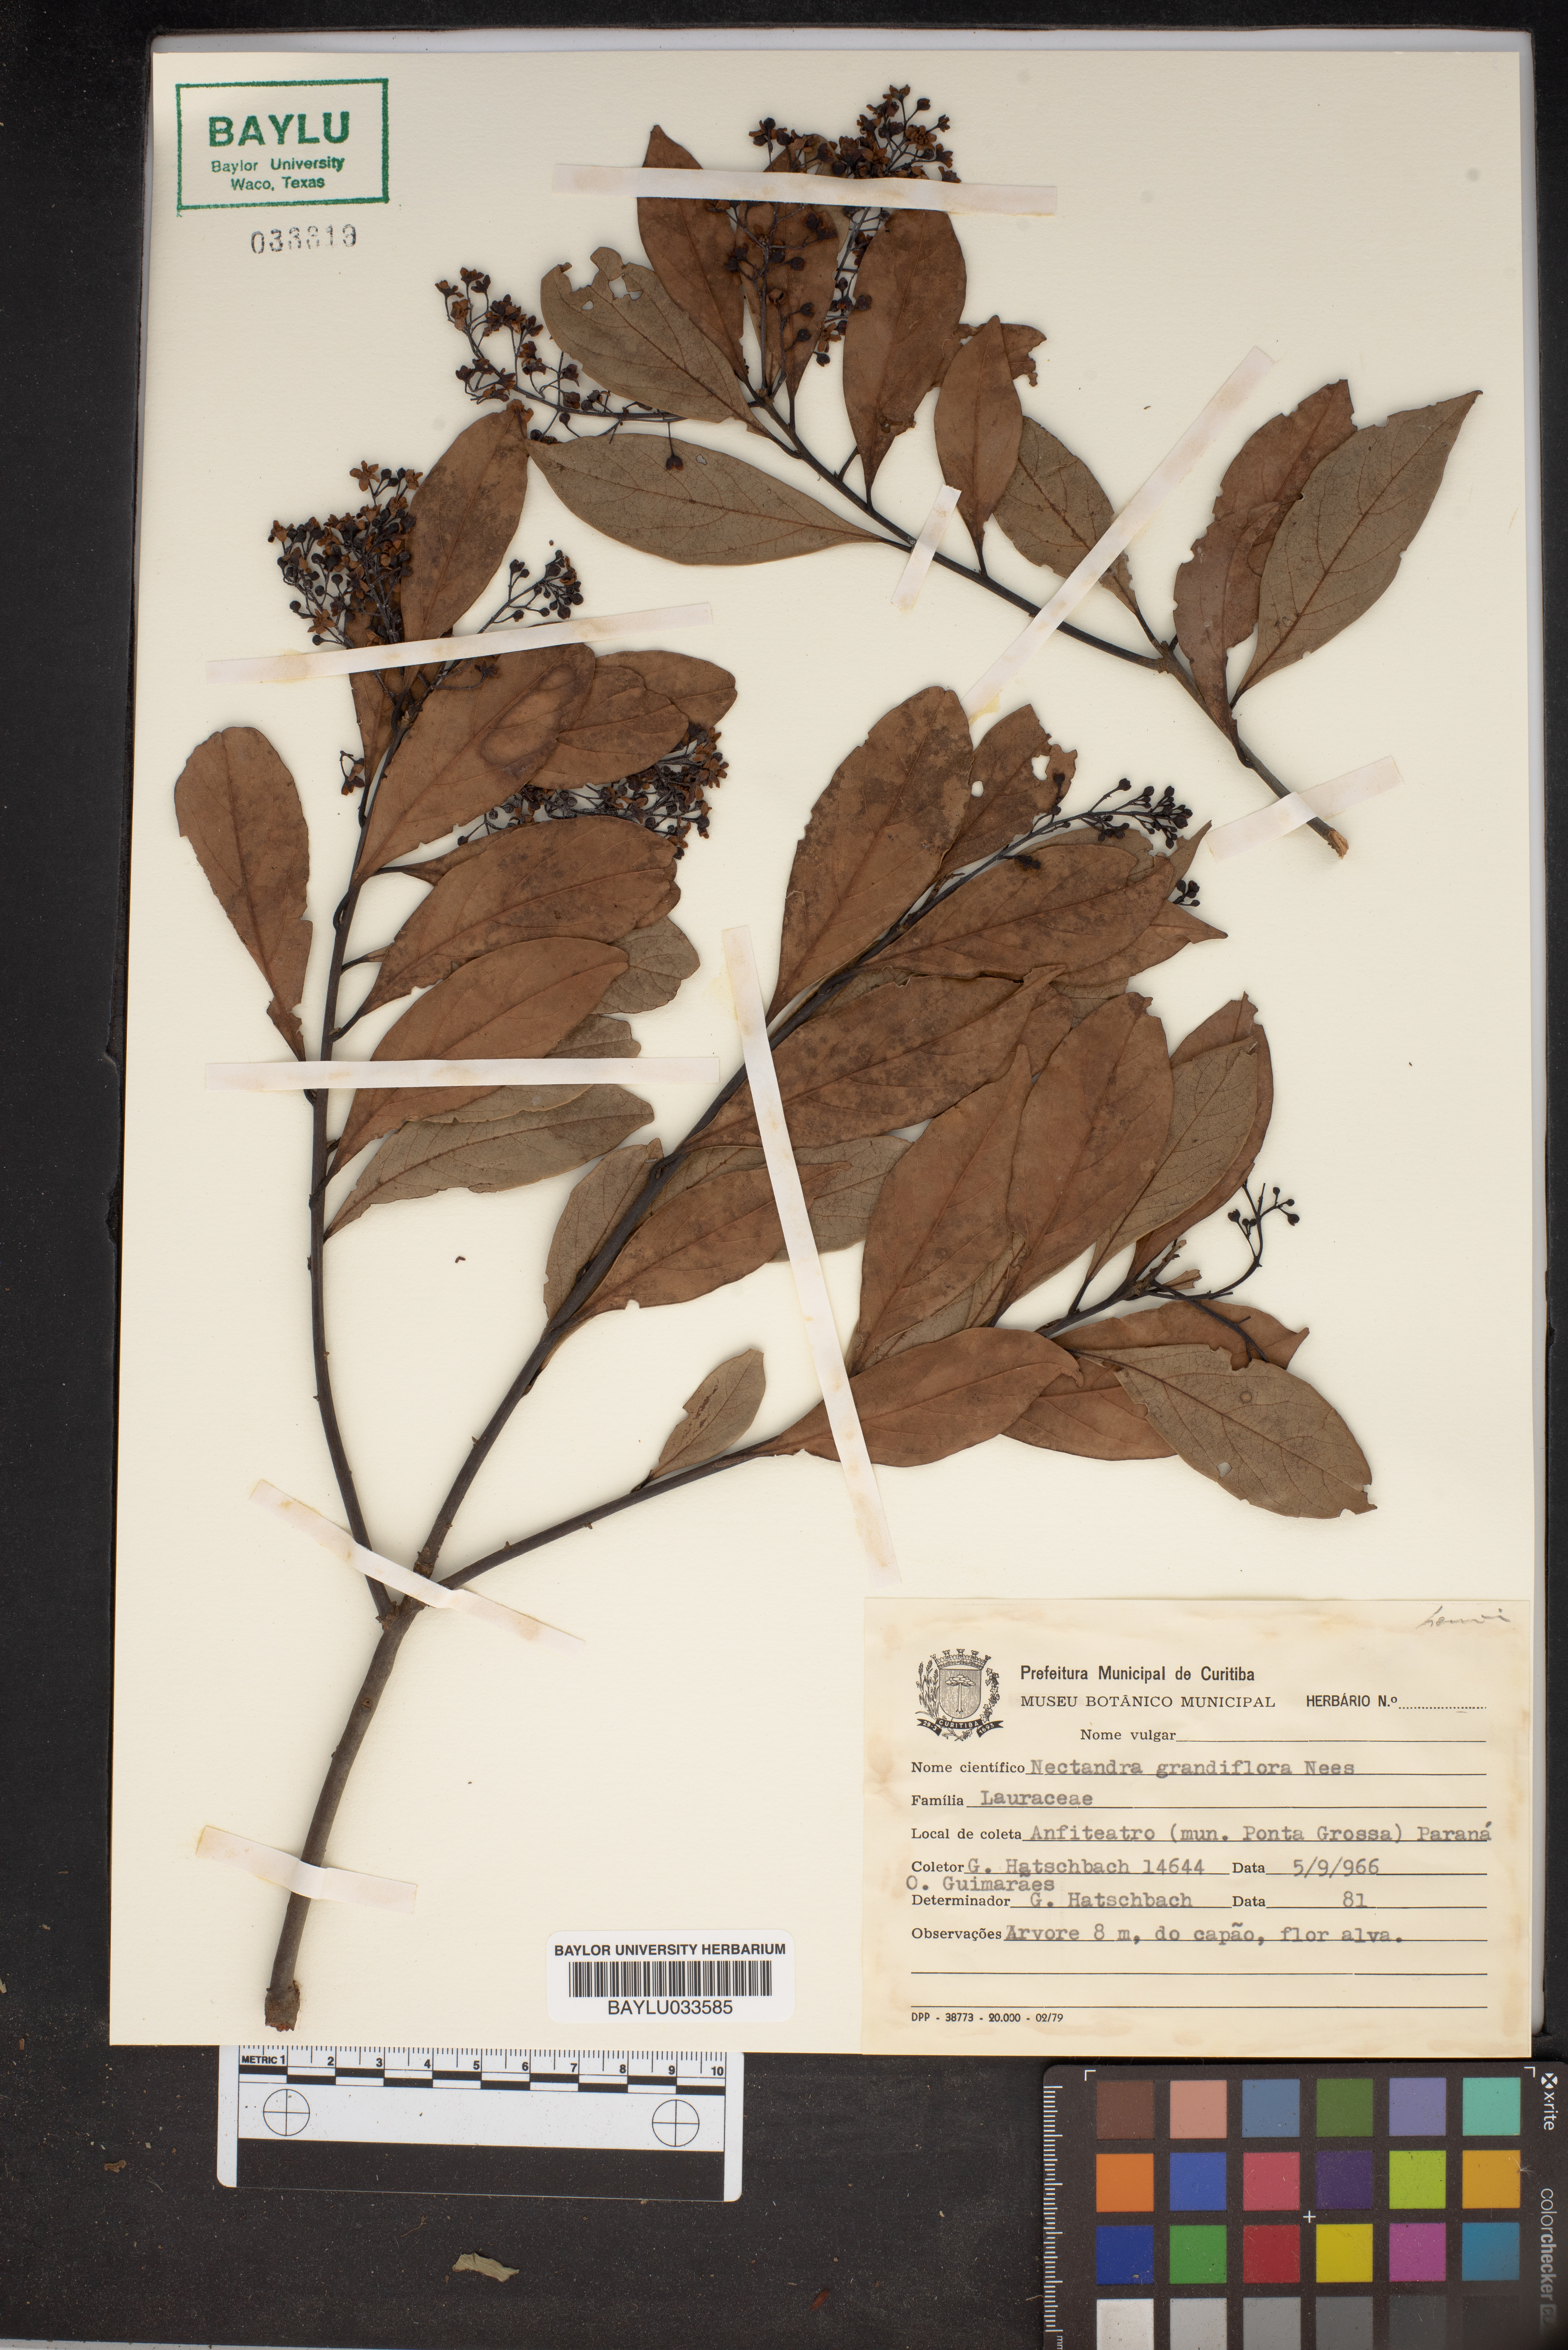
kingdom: Plantae
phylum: Tracheophyta
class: Magnoliopsida
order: Laurales
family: Lauraceae
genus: Nectandra
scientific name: Nectandra grandiflora
